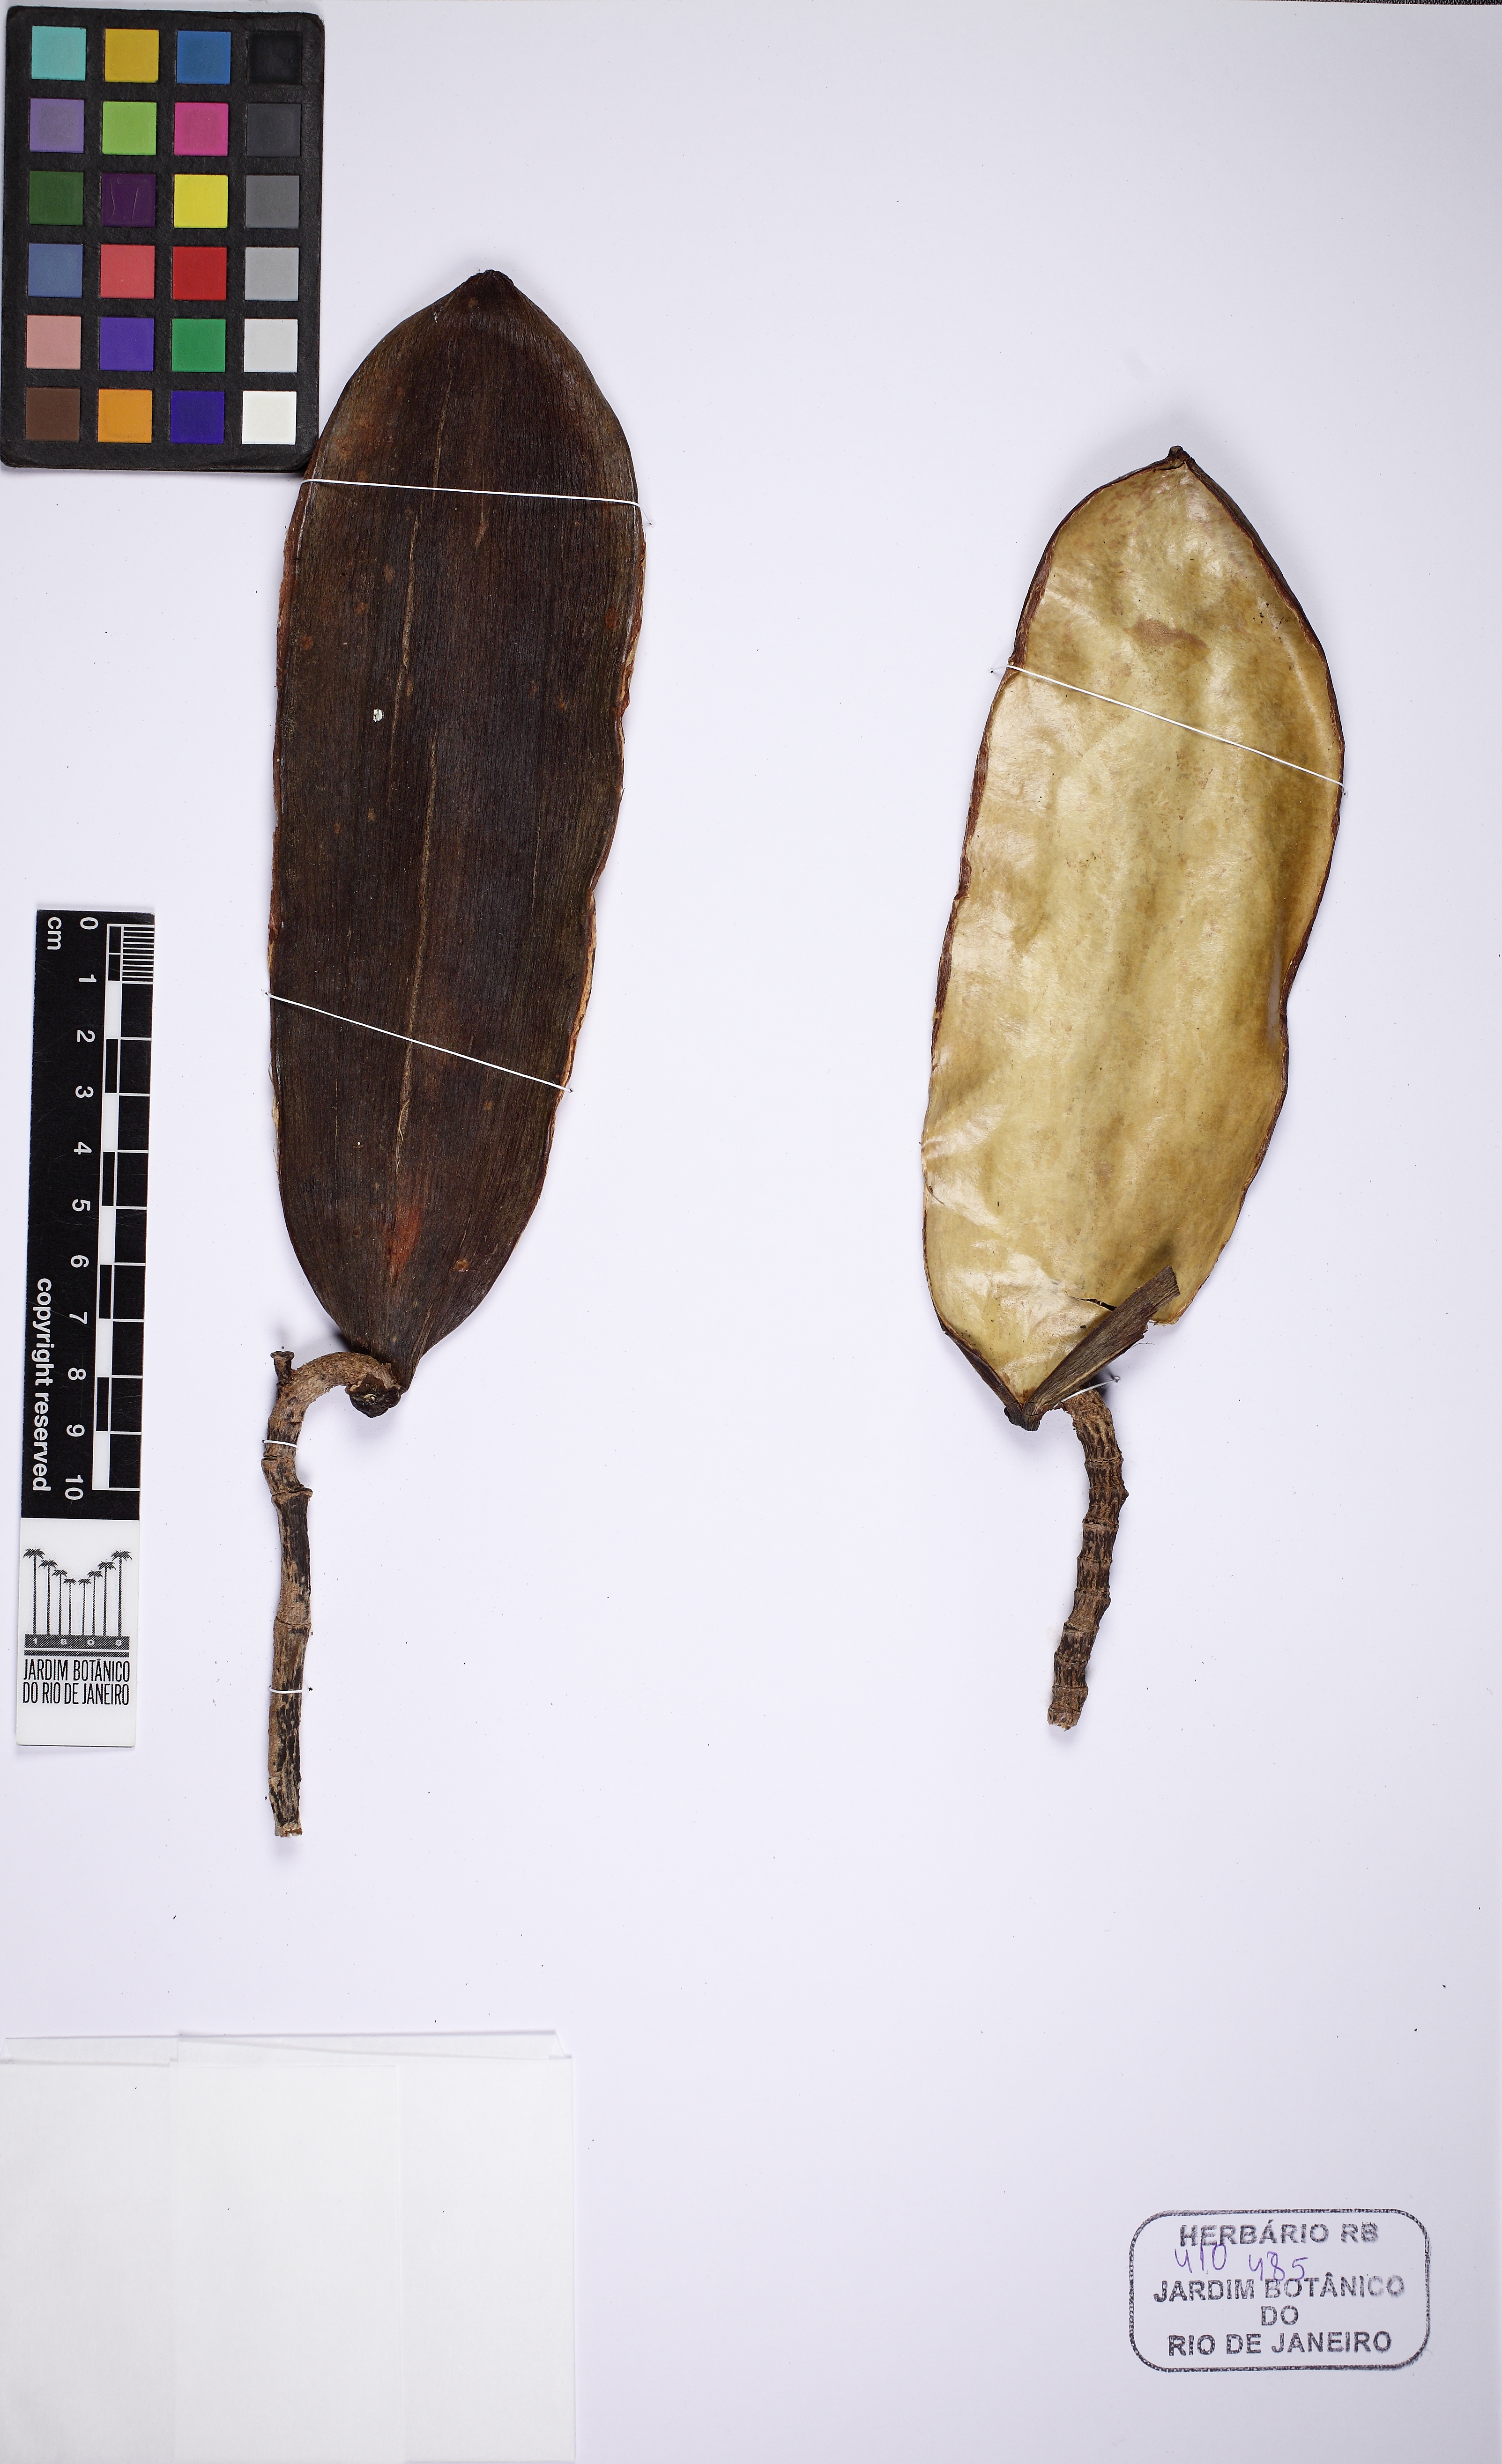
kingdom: Plantae
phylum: Tracheophyta
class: Magnoliopsida
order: Gentianales
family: Apocynaceae
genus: Himatanthus
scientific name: Himatanthus
